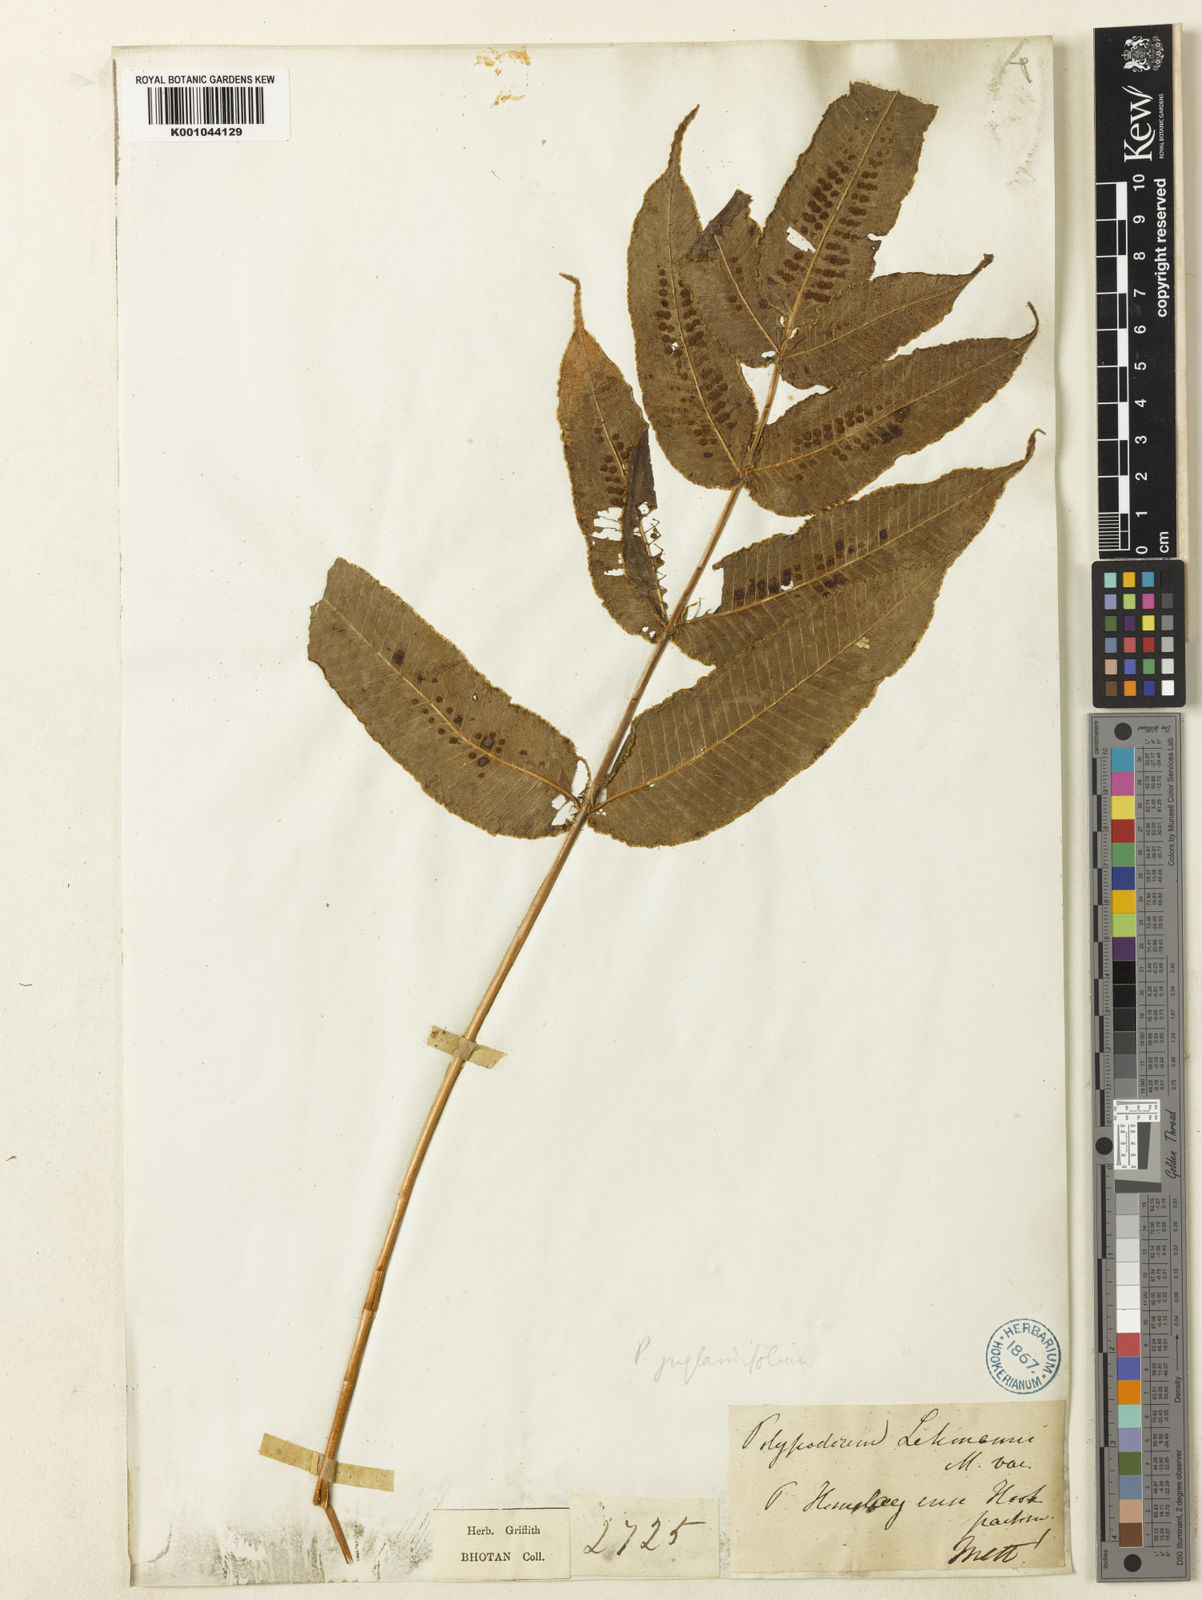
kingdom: Plantae
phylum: Tracheophyta
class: Polypodiopsida
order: Polypodiales
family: Polypodiaceae
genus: Selliguea
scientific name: Selliguea wardii
